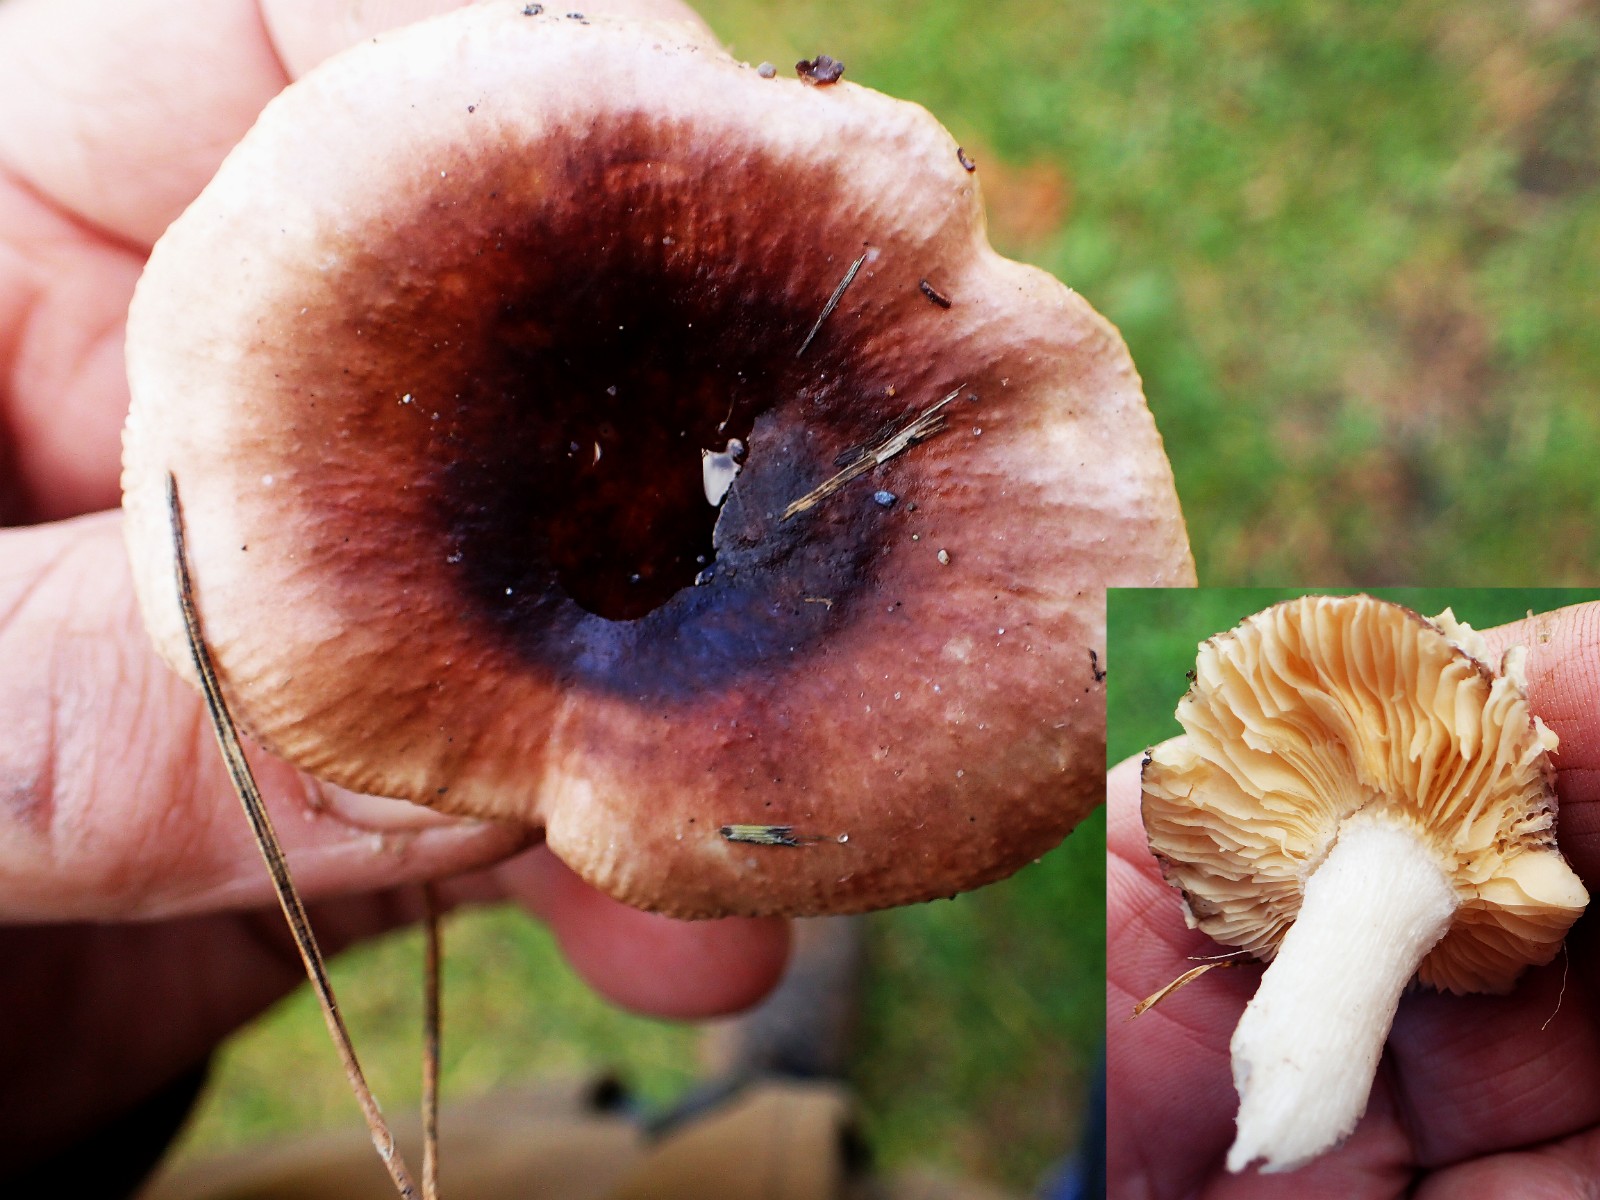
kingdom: Fungi
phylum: Basidiomycota
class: Agaricomycetes
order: Russulales
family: Russulaceae
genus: Russula
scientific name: Russula cessans
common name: fyrre-skørhat
